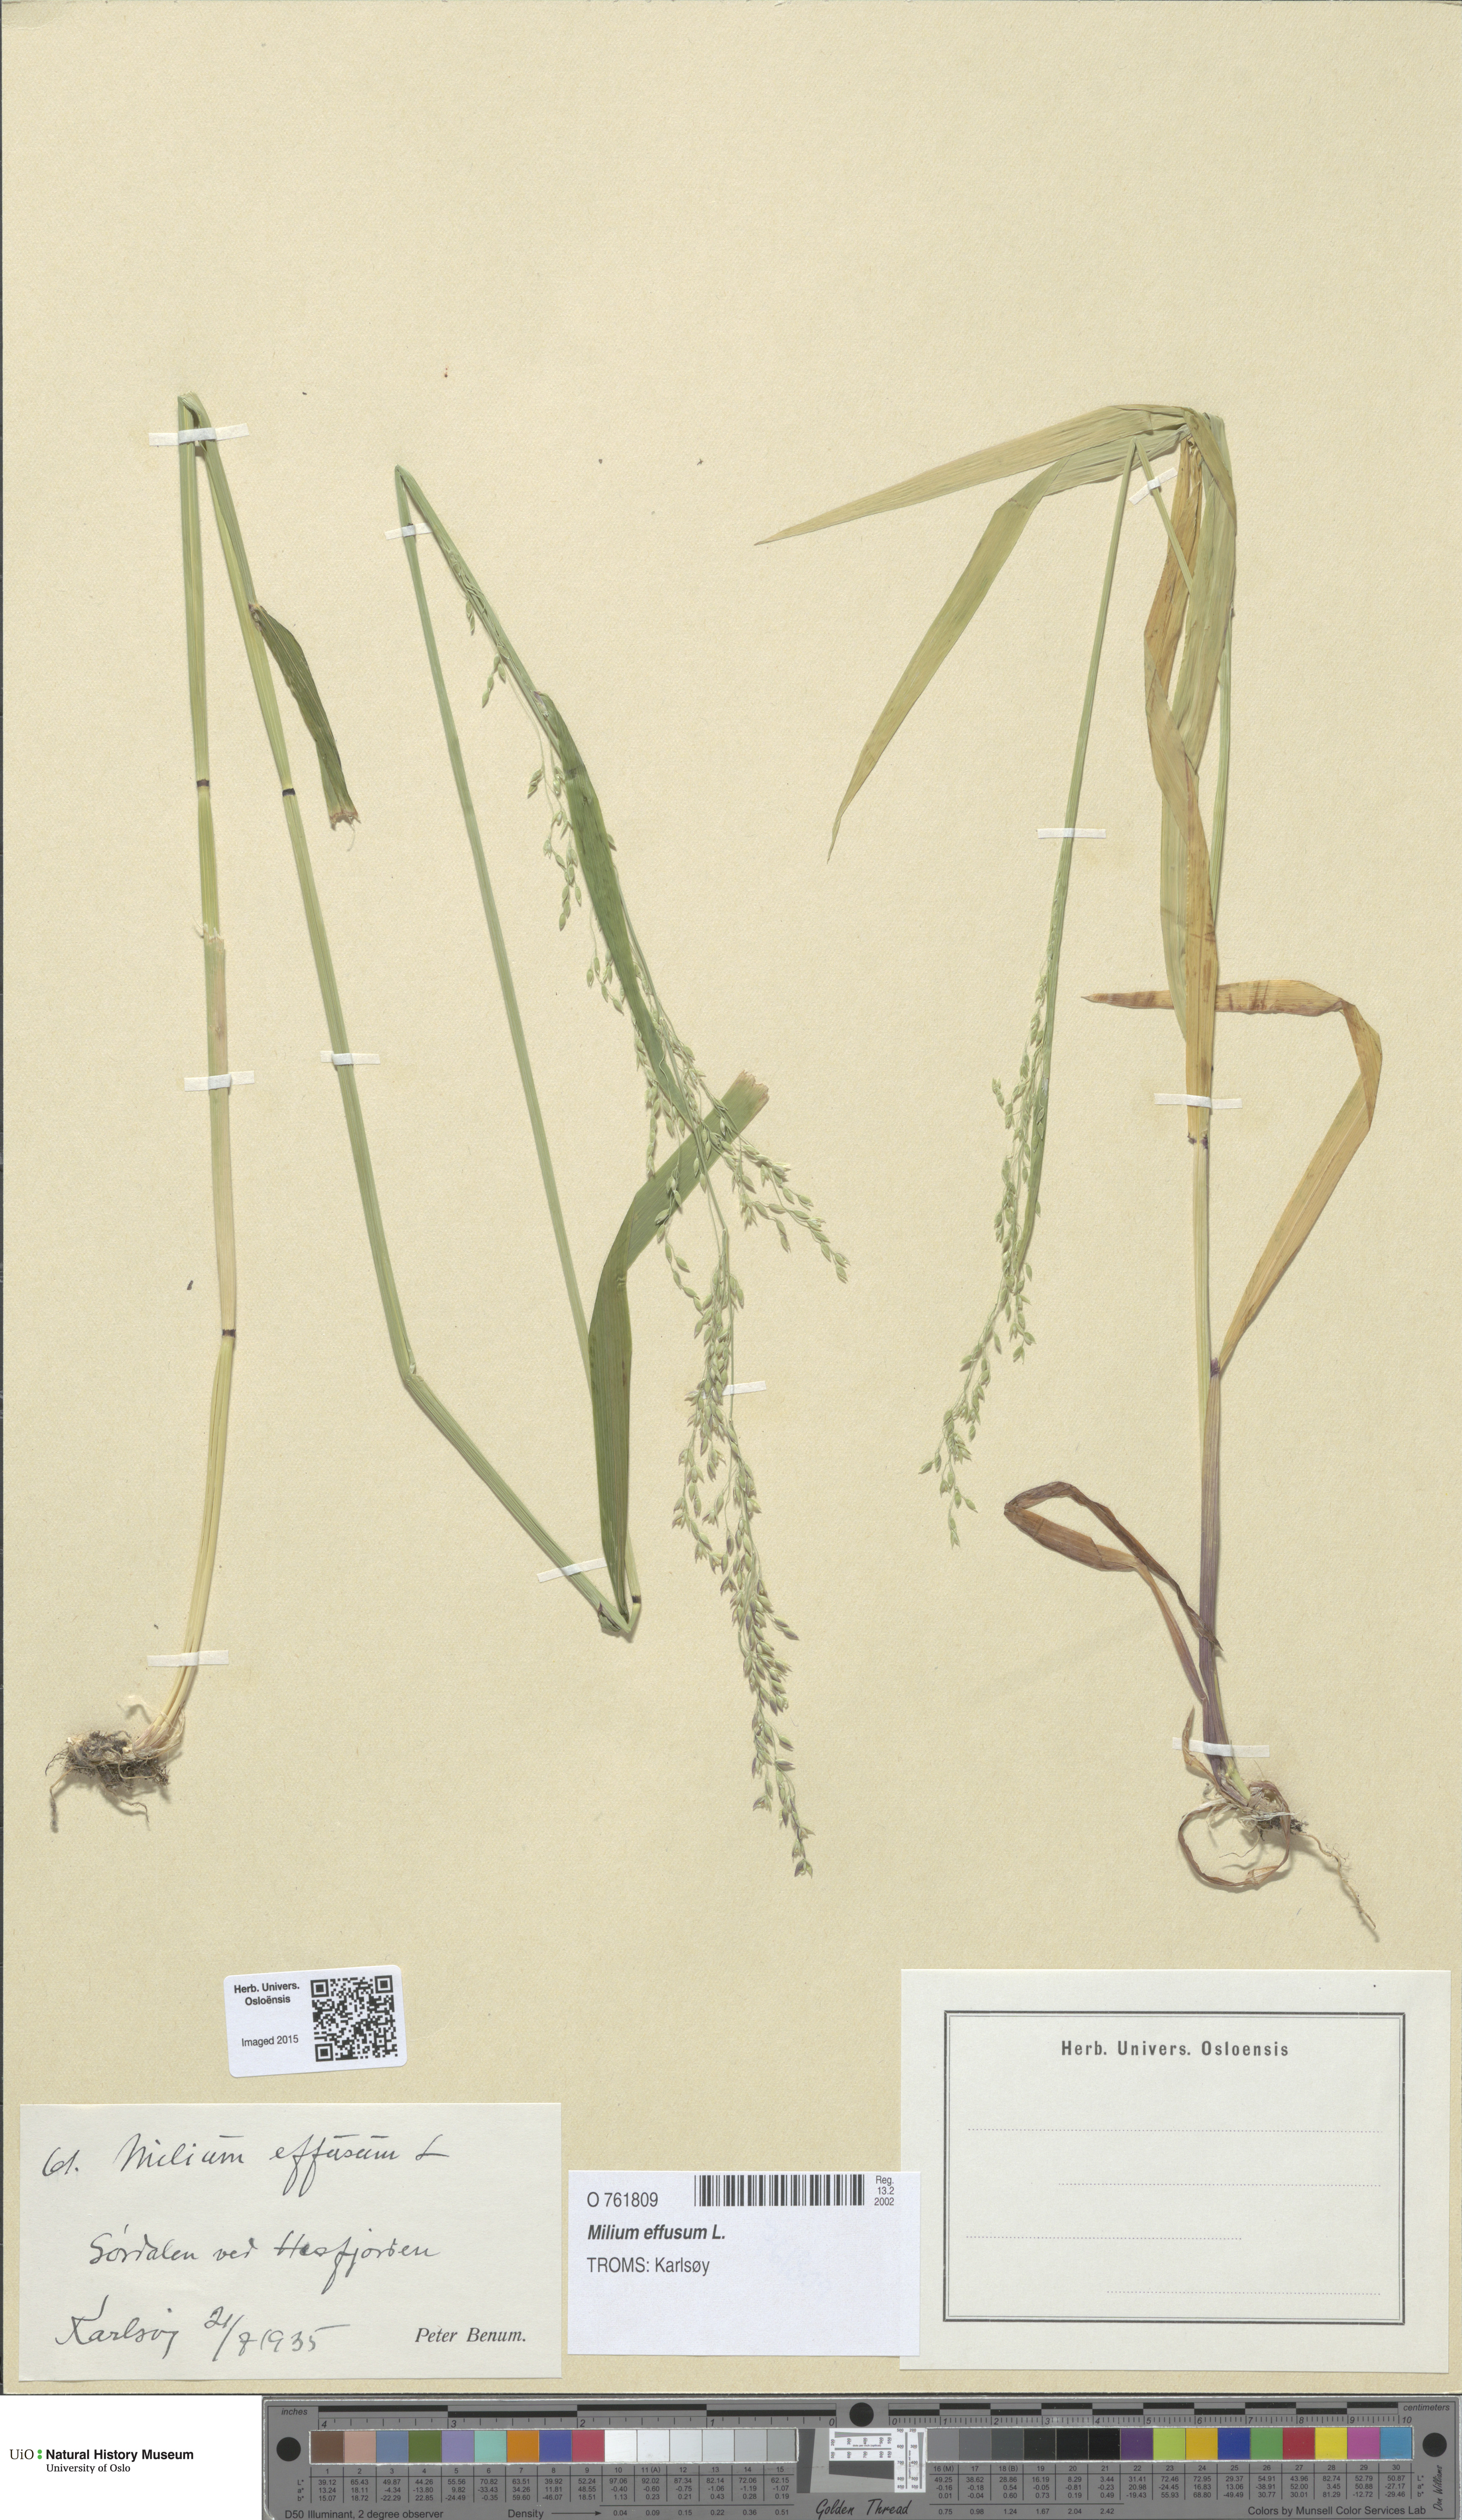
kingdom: Plantae
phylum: Tracheophyta
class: Liliopsida
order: Poales
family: Poaceae
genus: Milium
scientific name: Milium effusum
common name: Wood millet
